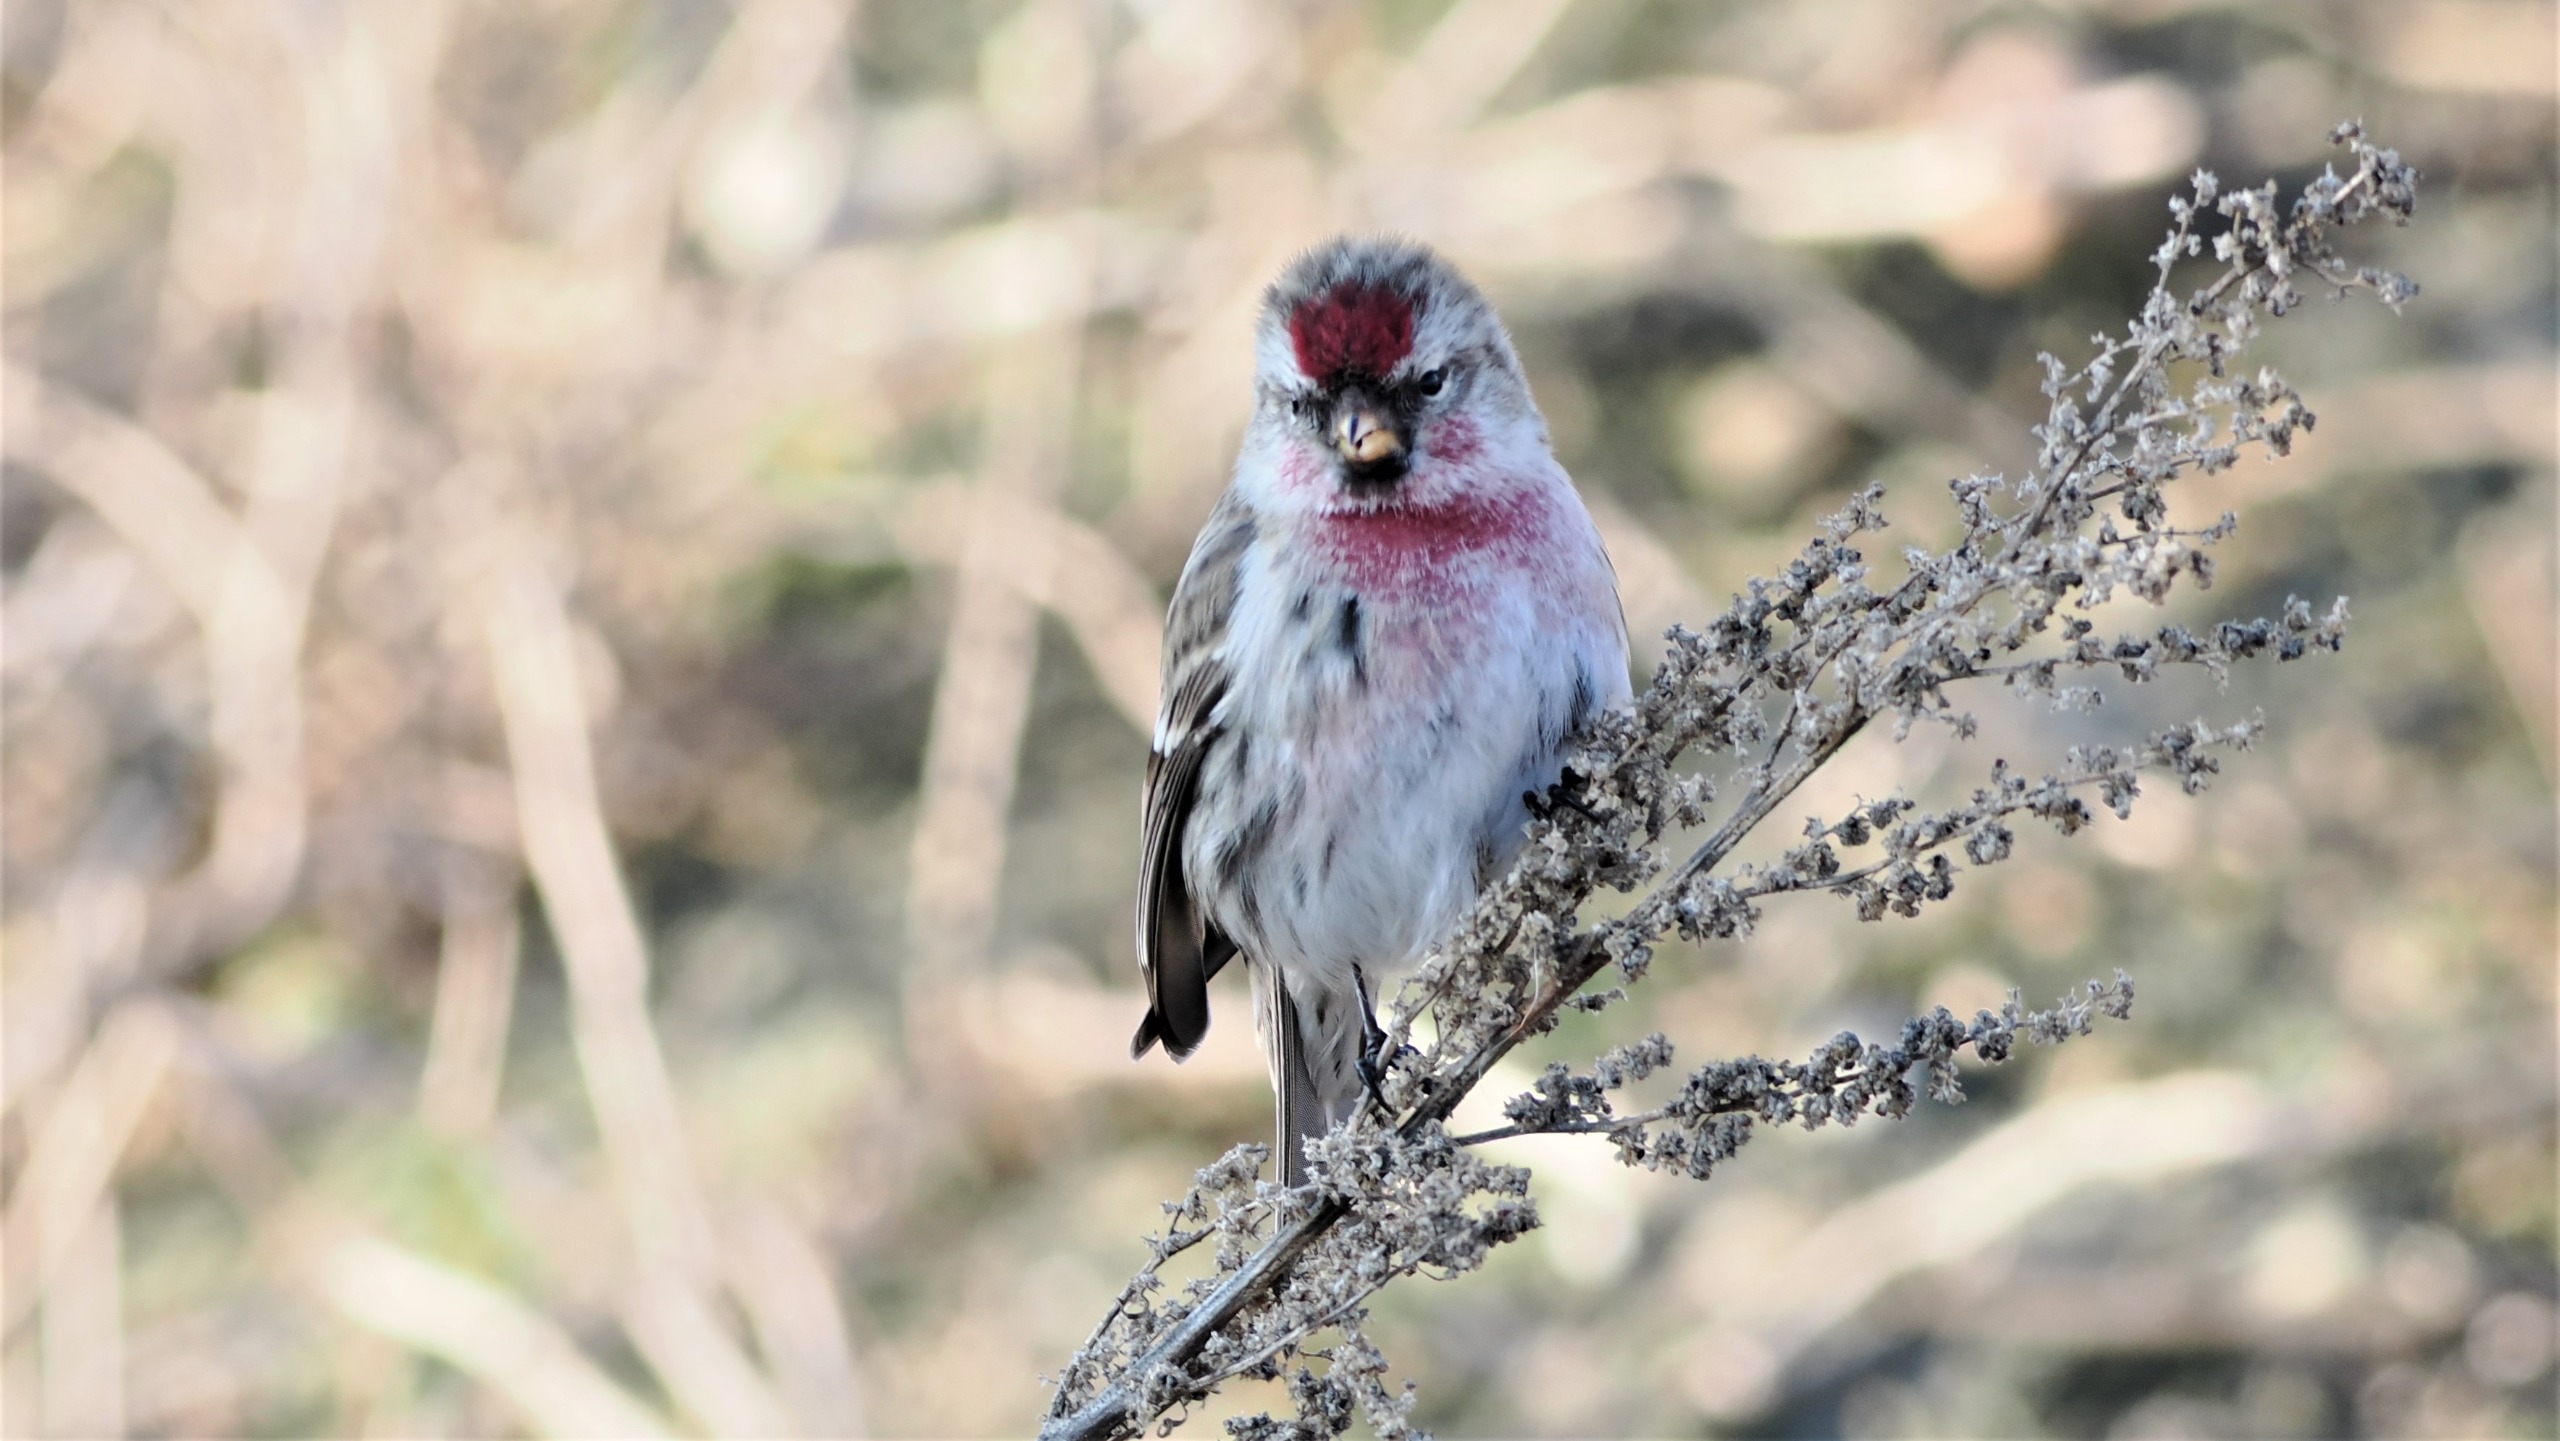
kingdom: Animalia
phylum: Chordata
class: Aves
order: Passeriformes
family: Fringillidae
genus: Acanthis
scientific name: Acanthis flammea
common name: Nordlig gråsisken
